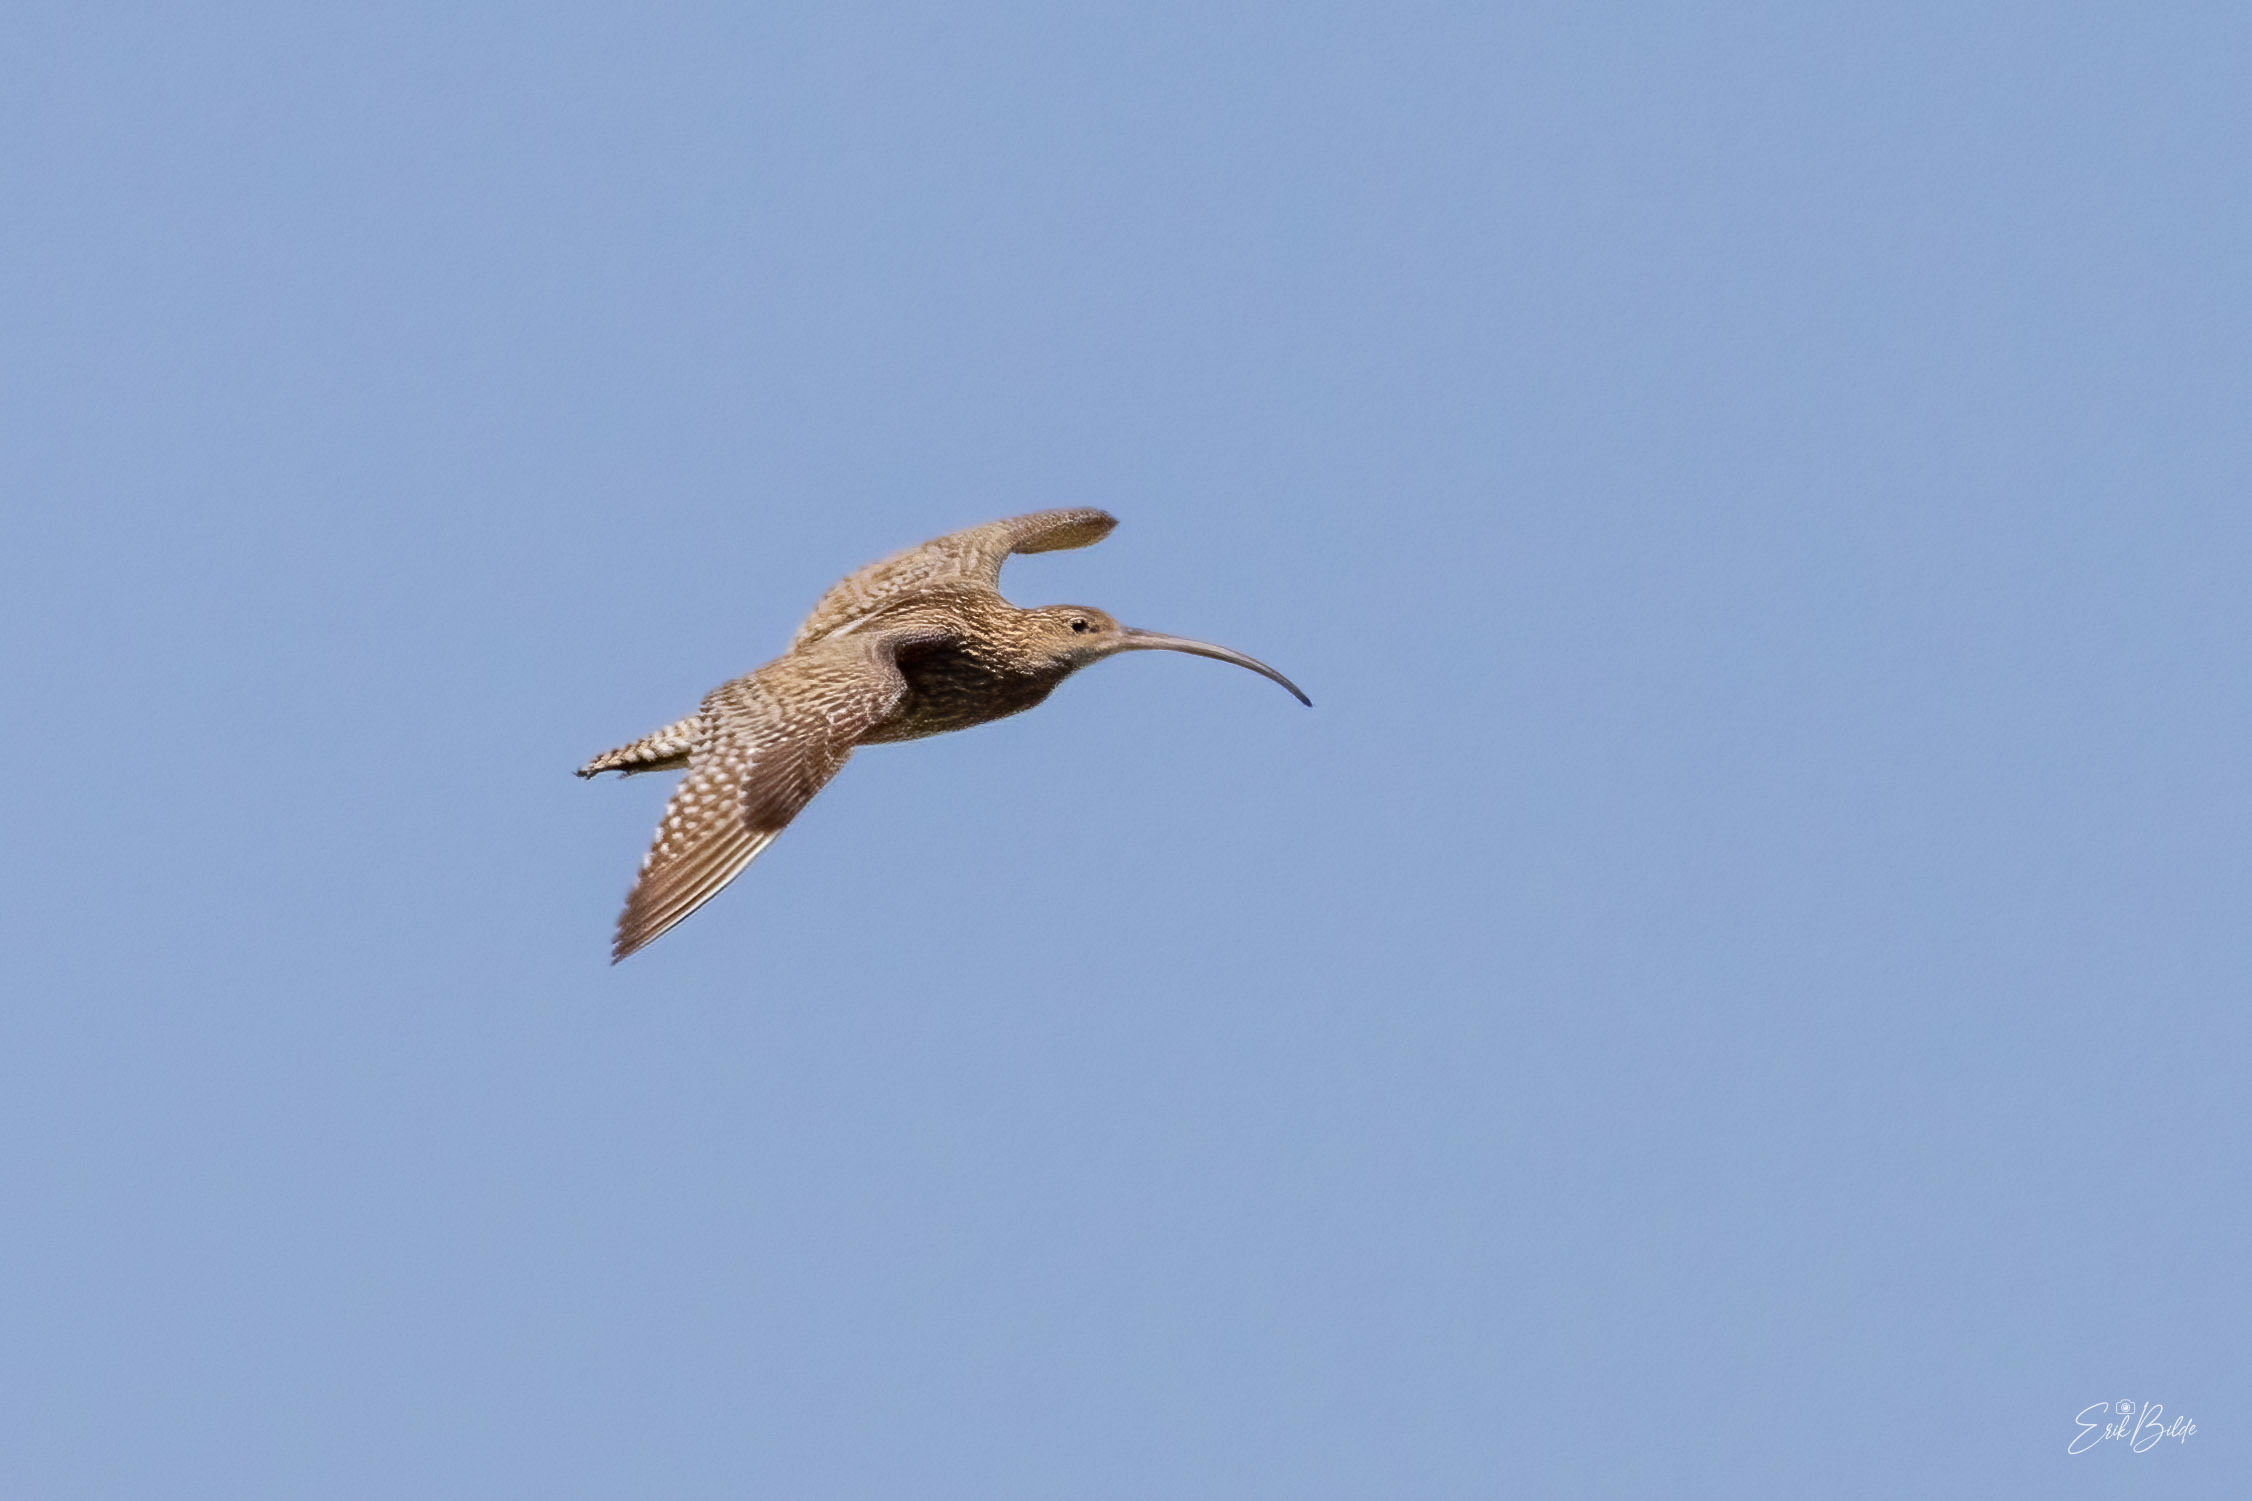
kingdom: Animalia
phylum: Chordata
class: Aves
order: Charadriiformes
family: Scolopacidae
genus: Numenius
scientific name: Numenius arquata
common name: Storspove
